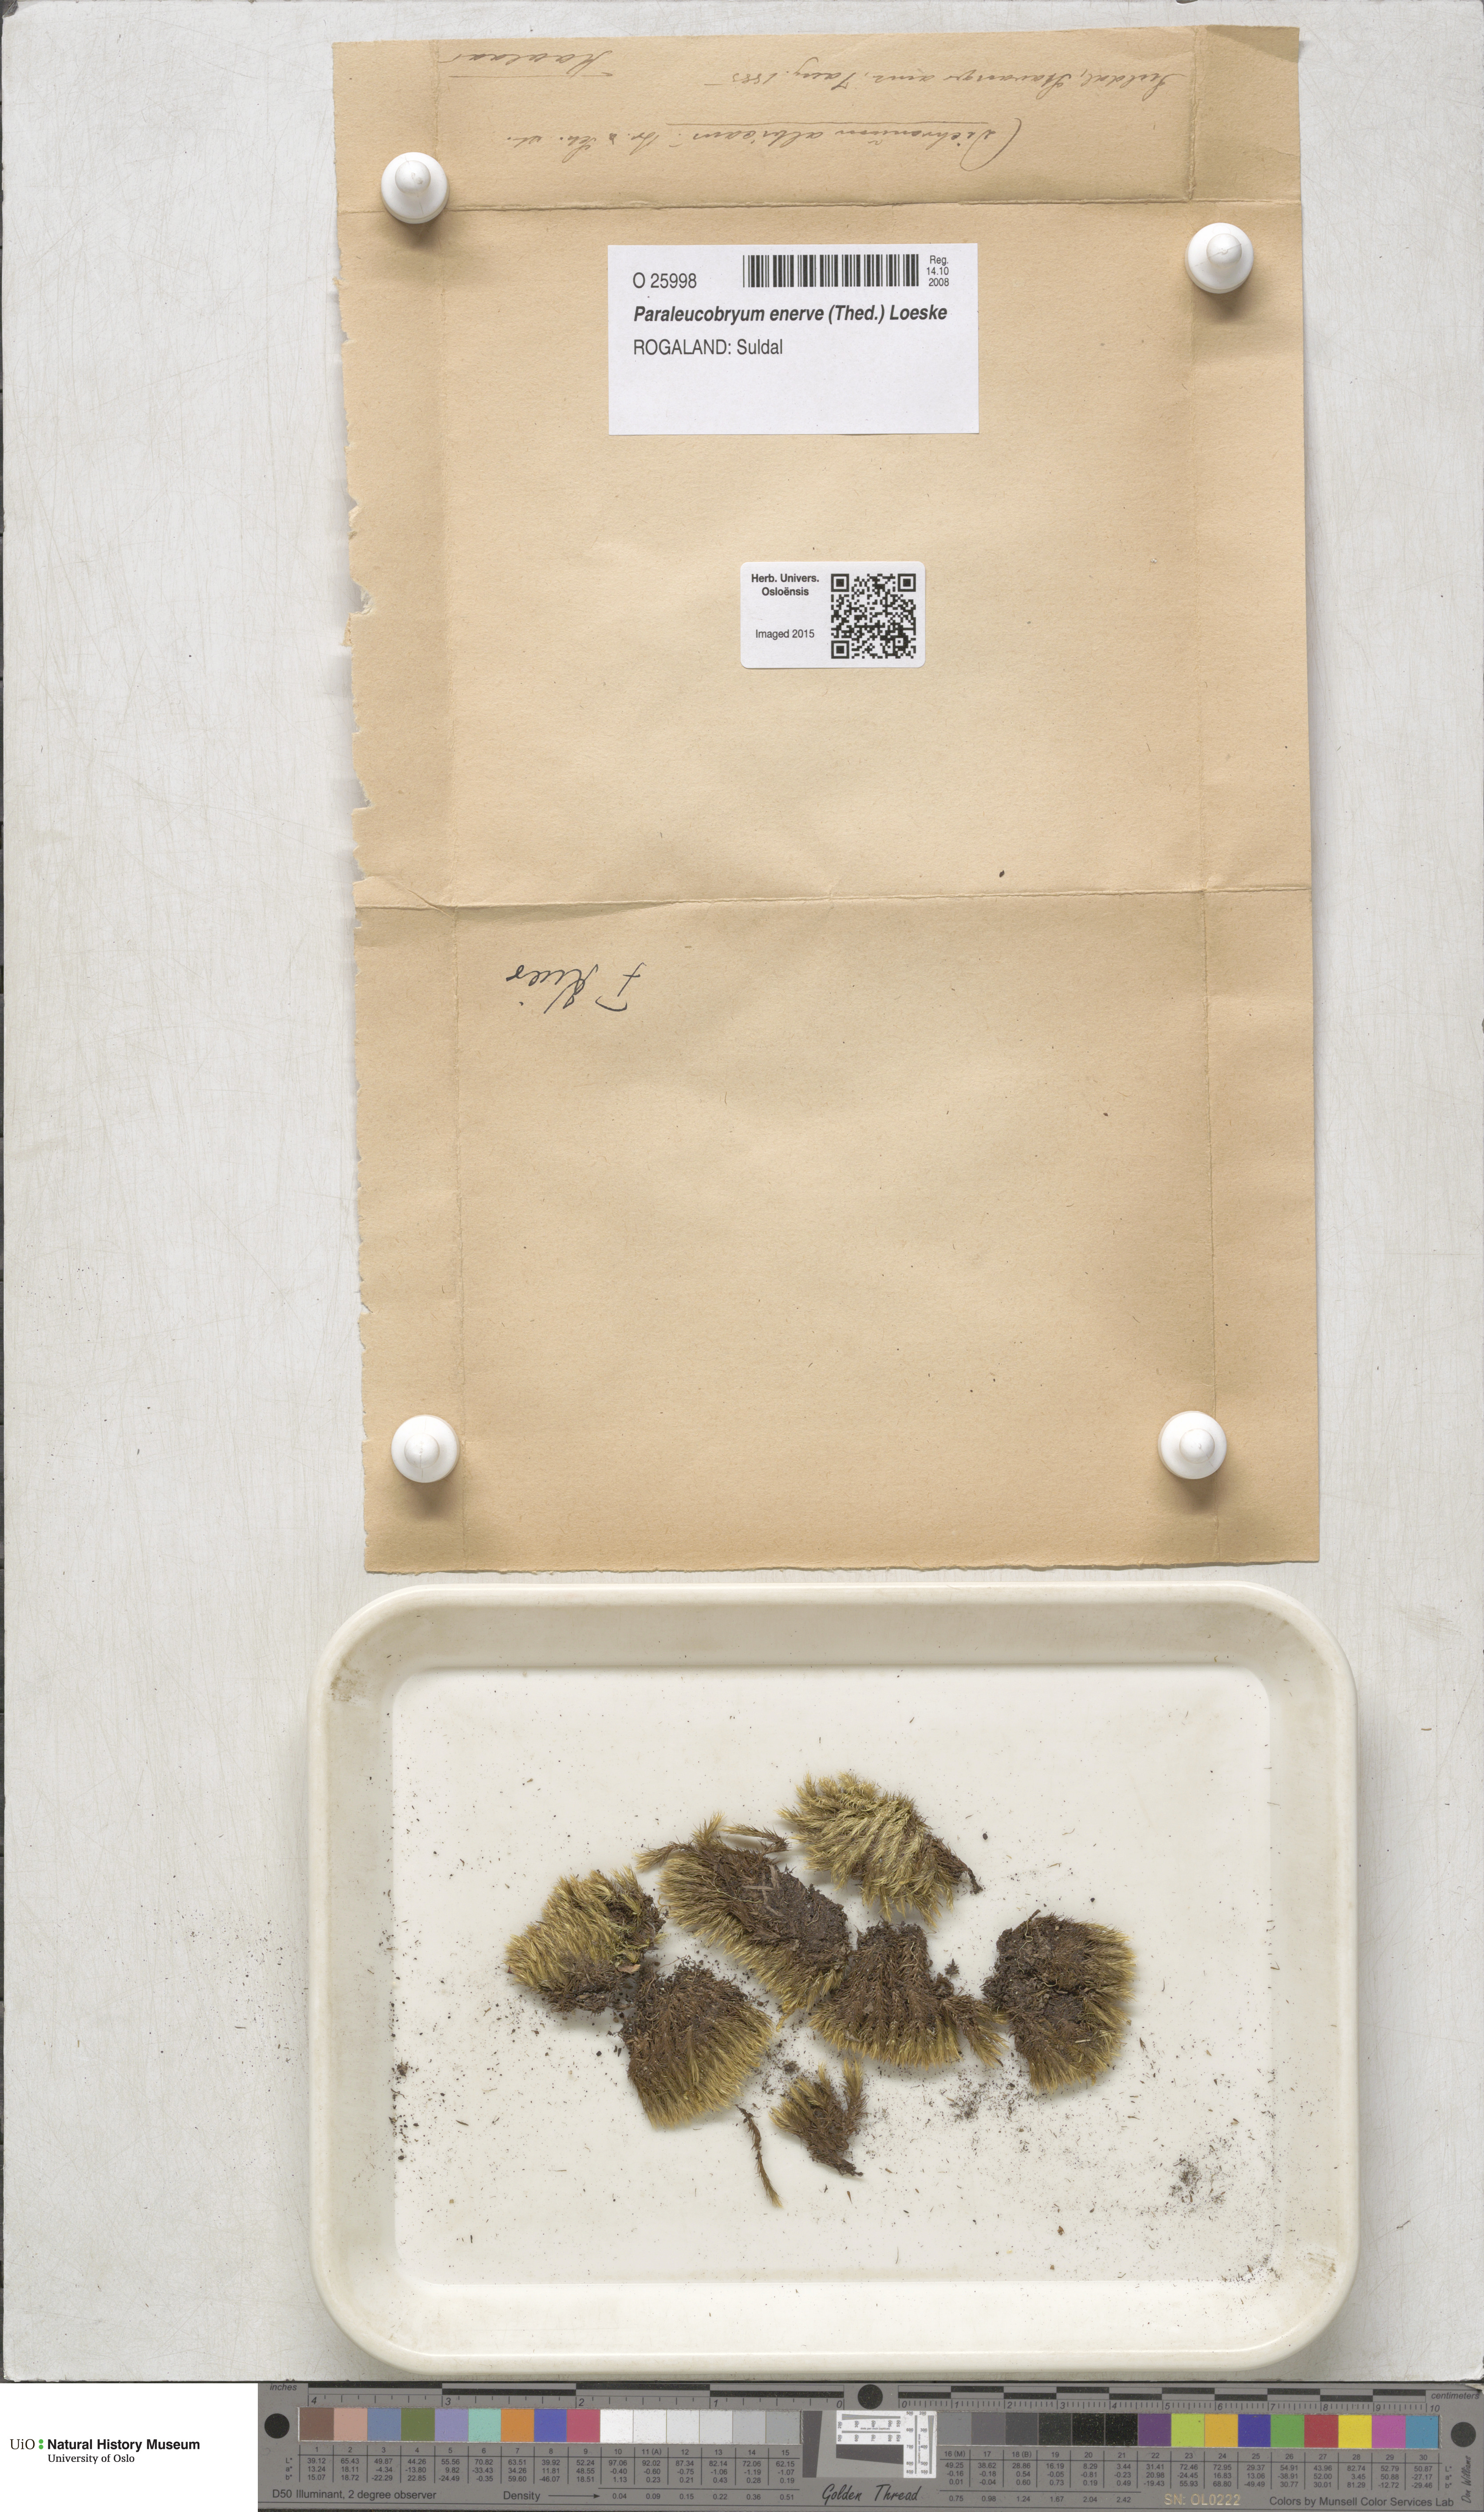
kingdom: Plantae
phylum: Bryophyta
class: Bryopsida
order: Dicranales
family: Dicranaceae
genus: Paraleucobryum
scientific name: Paraleucobryum enerve
